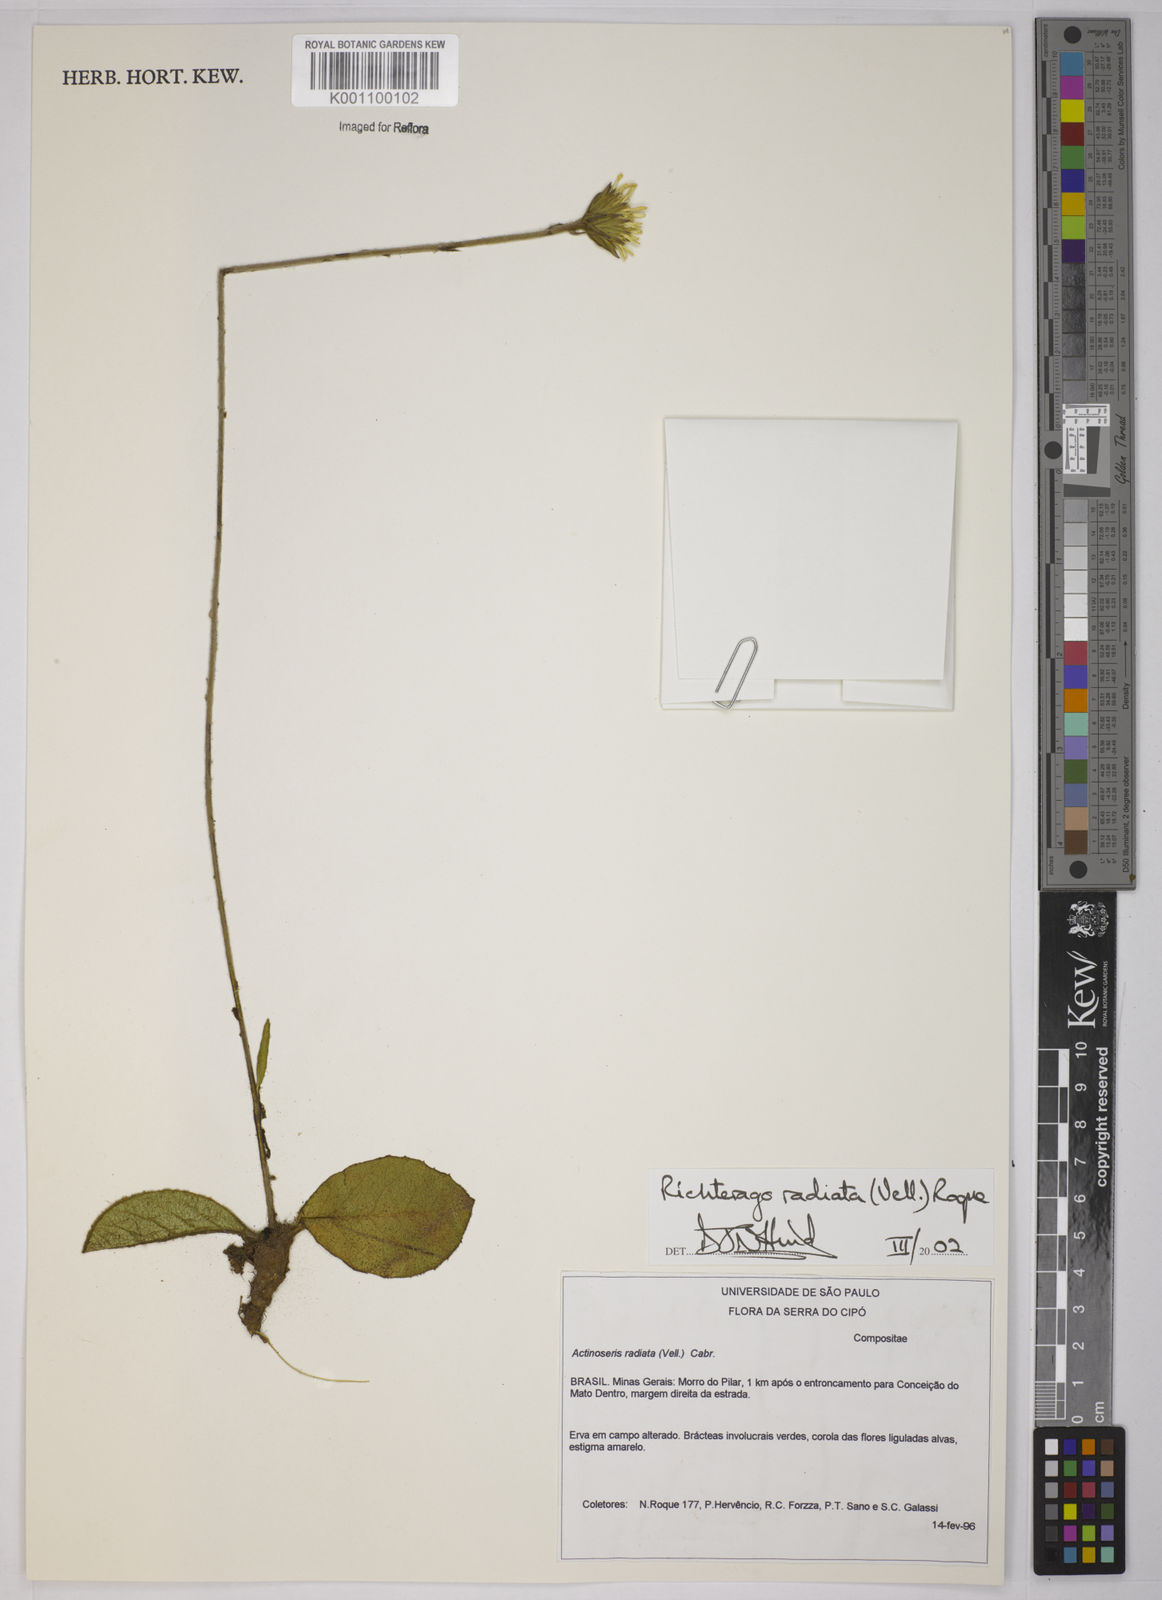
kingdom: Plantae
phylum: Tracheophyta
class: Magnoliopsida
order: Asterales
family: Asteraceae
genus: Richterago
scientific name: Richterago radiata
